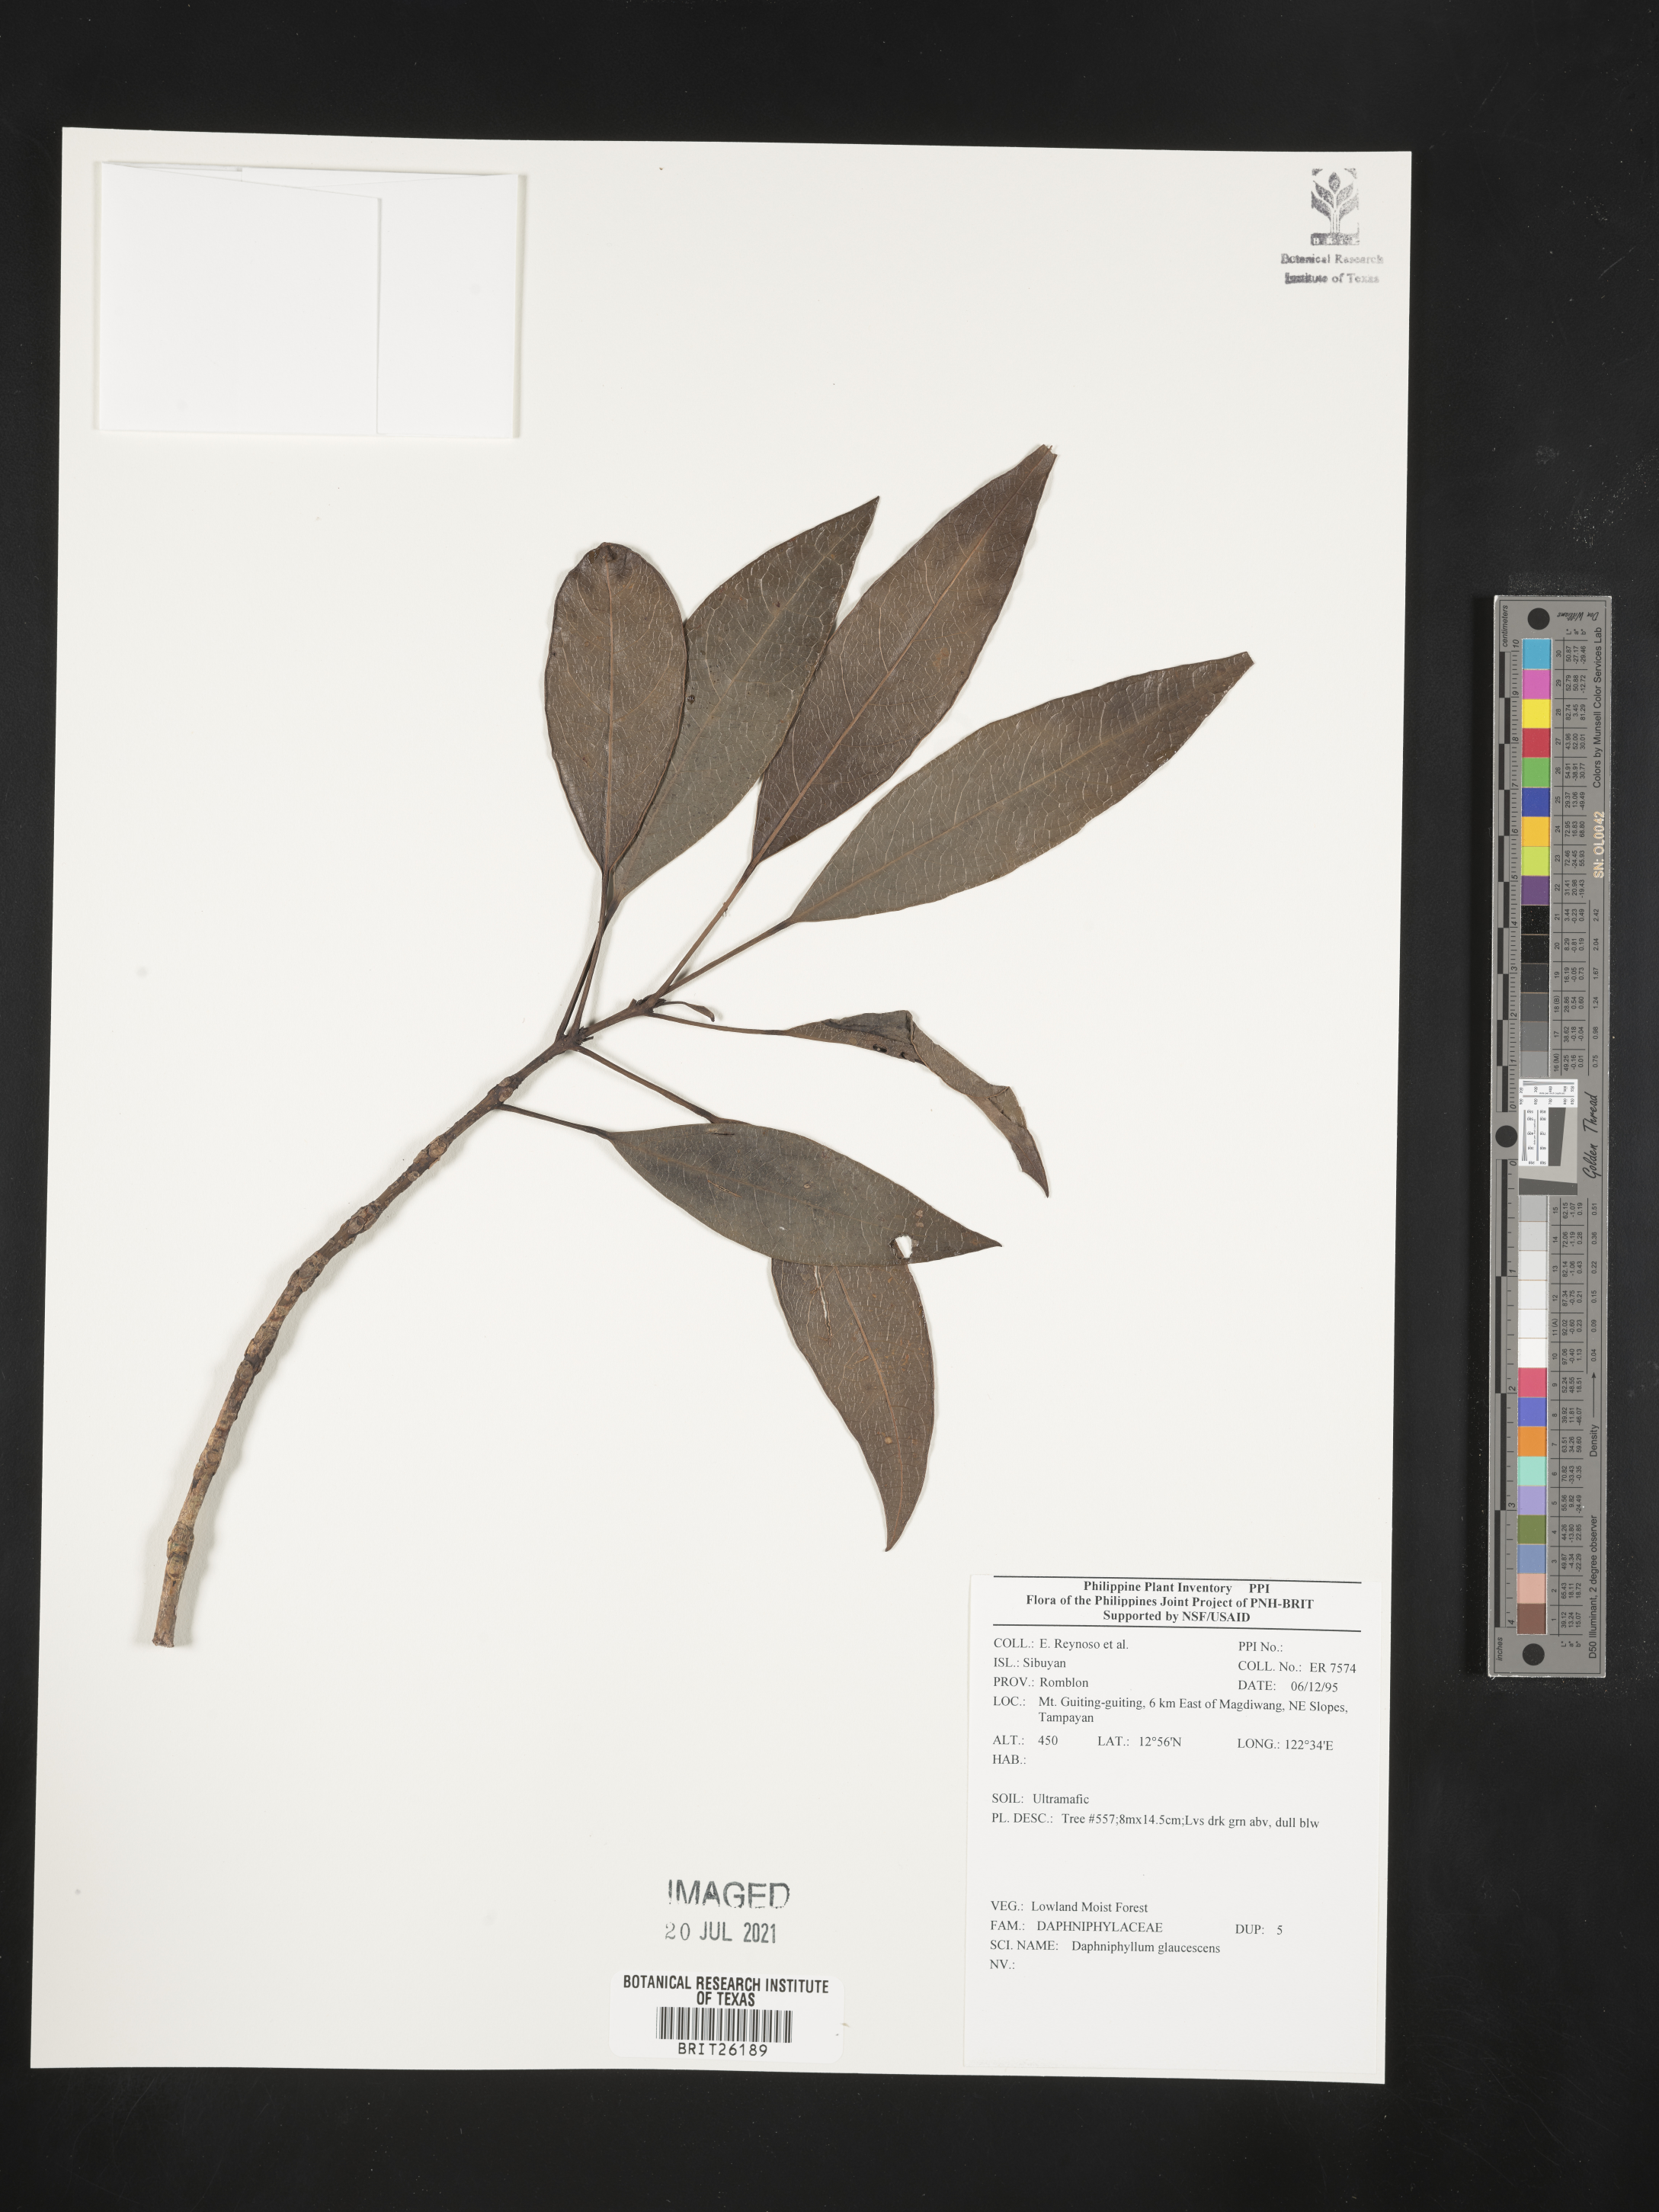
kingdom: Plantae
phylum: Tracheophyta
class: Magnoliopsida
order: Saxifragales
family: Daphniphyllaceae
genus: Daphniphyllum
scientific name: Daphniphyllum glaucescens
